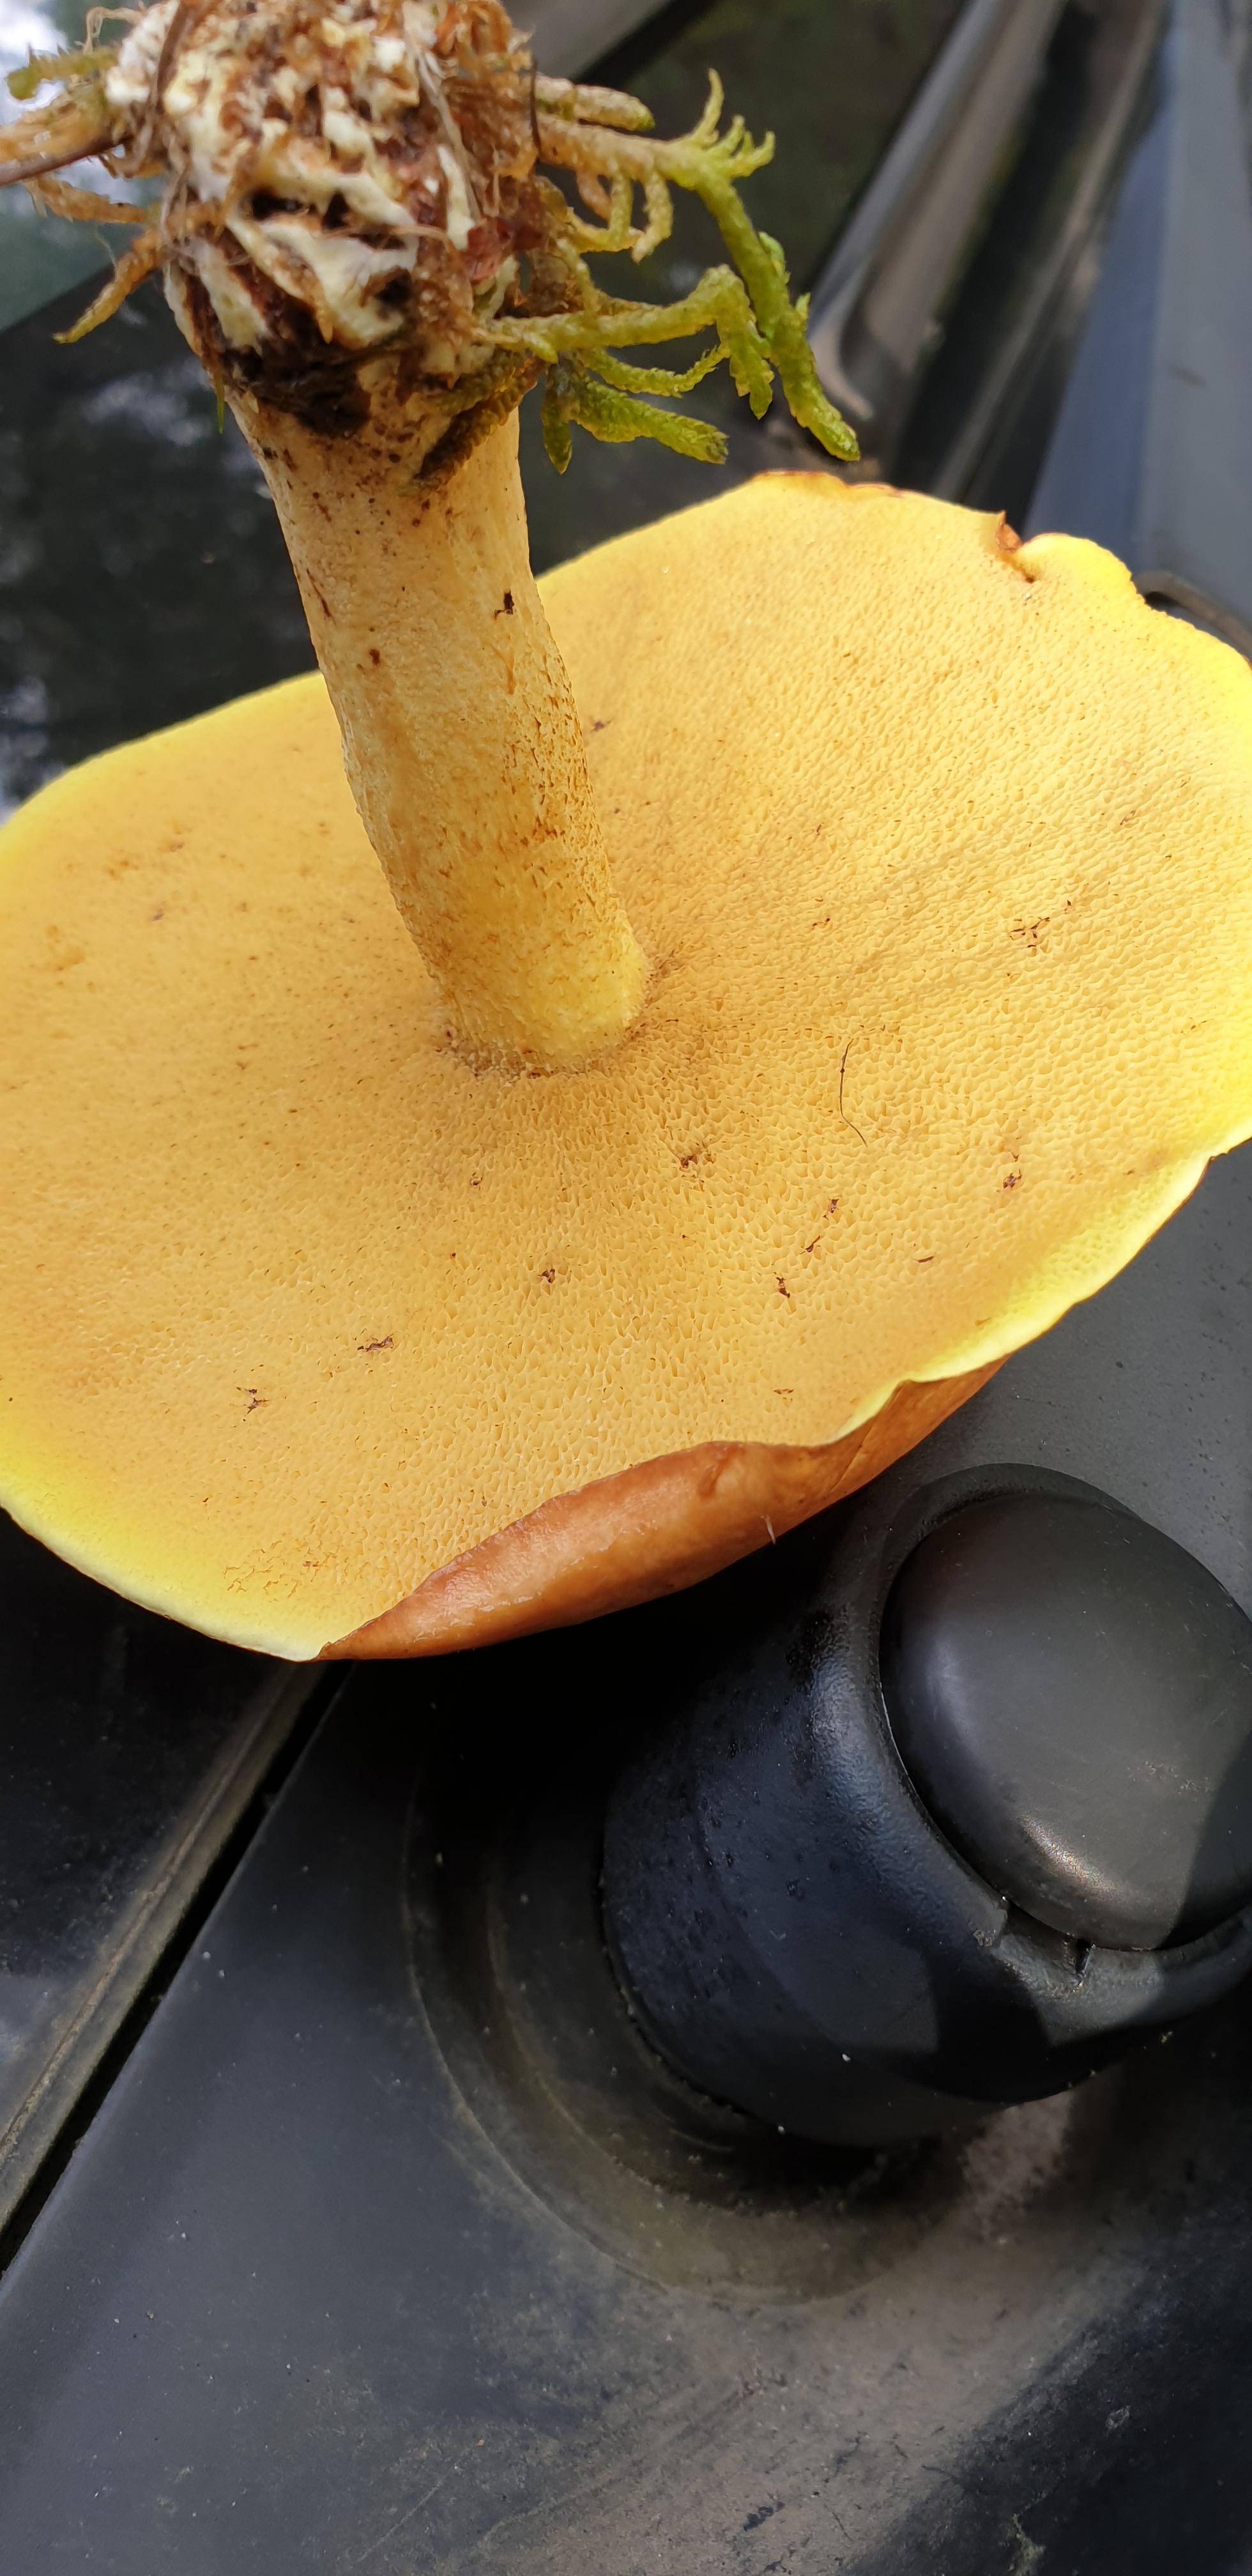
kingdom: Fungi
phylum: Basidiomycota
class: Agaricomycetes
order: Boletales
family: Suillaceae
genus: Suillus
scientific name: Suillus granulatus
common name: kornet slimrørhat
